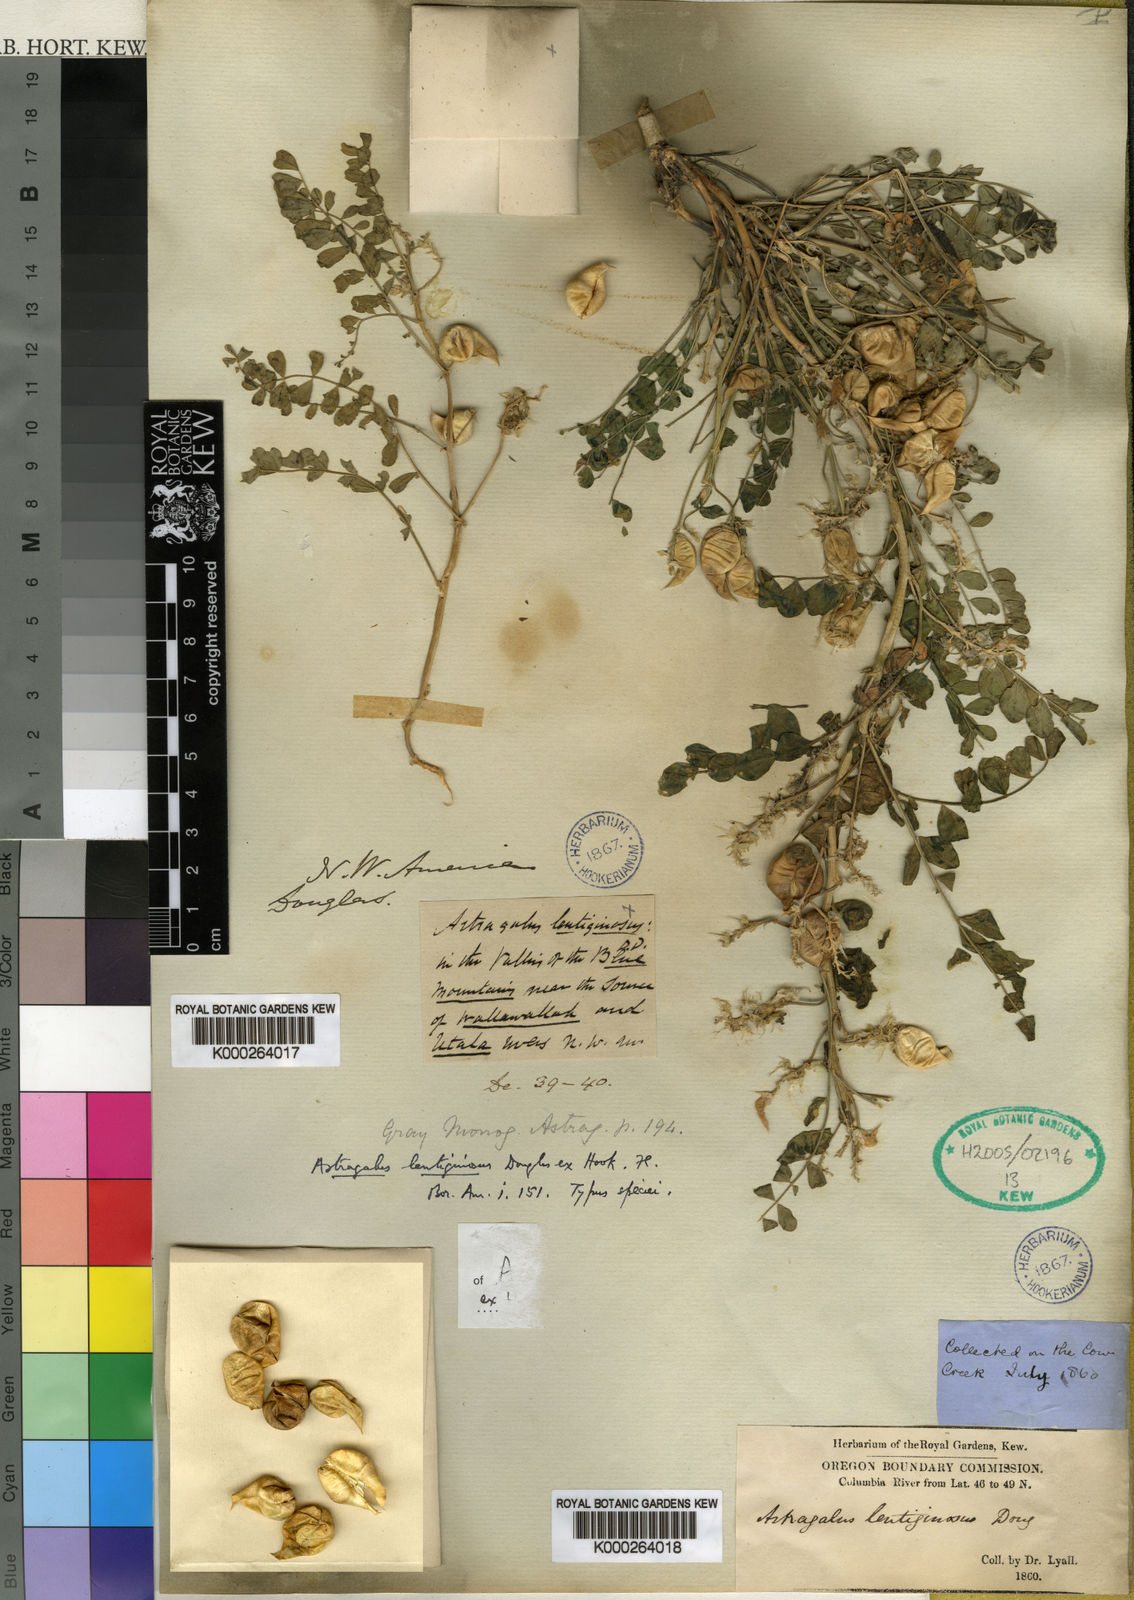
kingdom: Plantae
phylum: Tracheophyta
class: Magnoliopsida
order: Fabales
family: Fabaceae
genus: Astragalus
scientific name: Astragalus lentiginosus
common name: Freckled milkvetch
